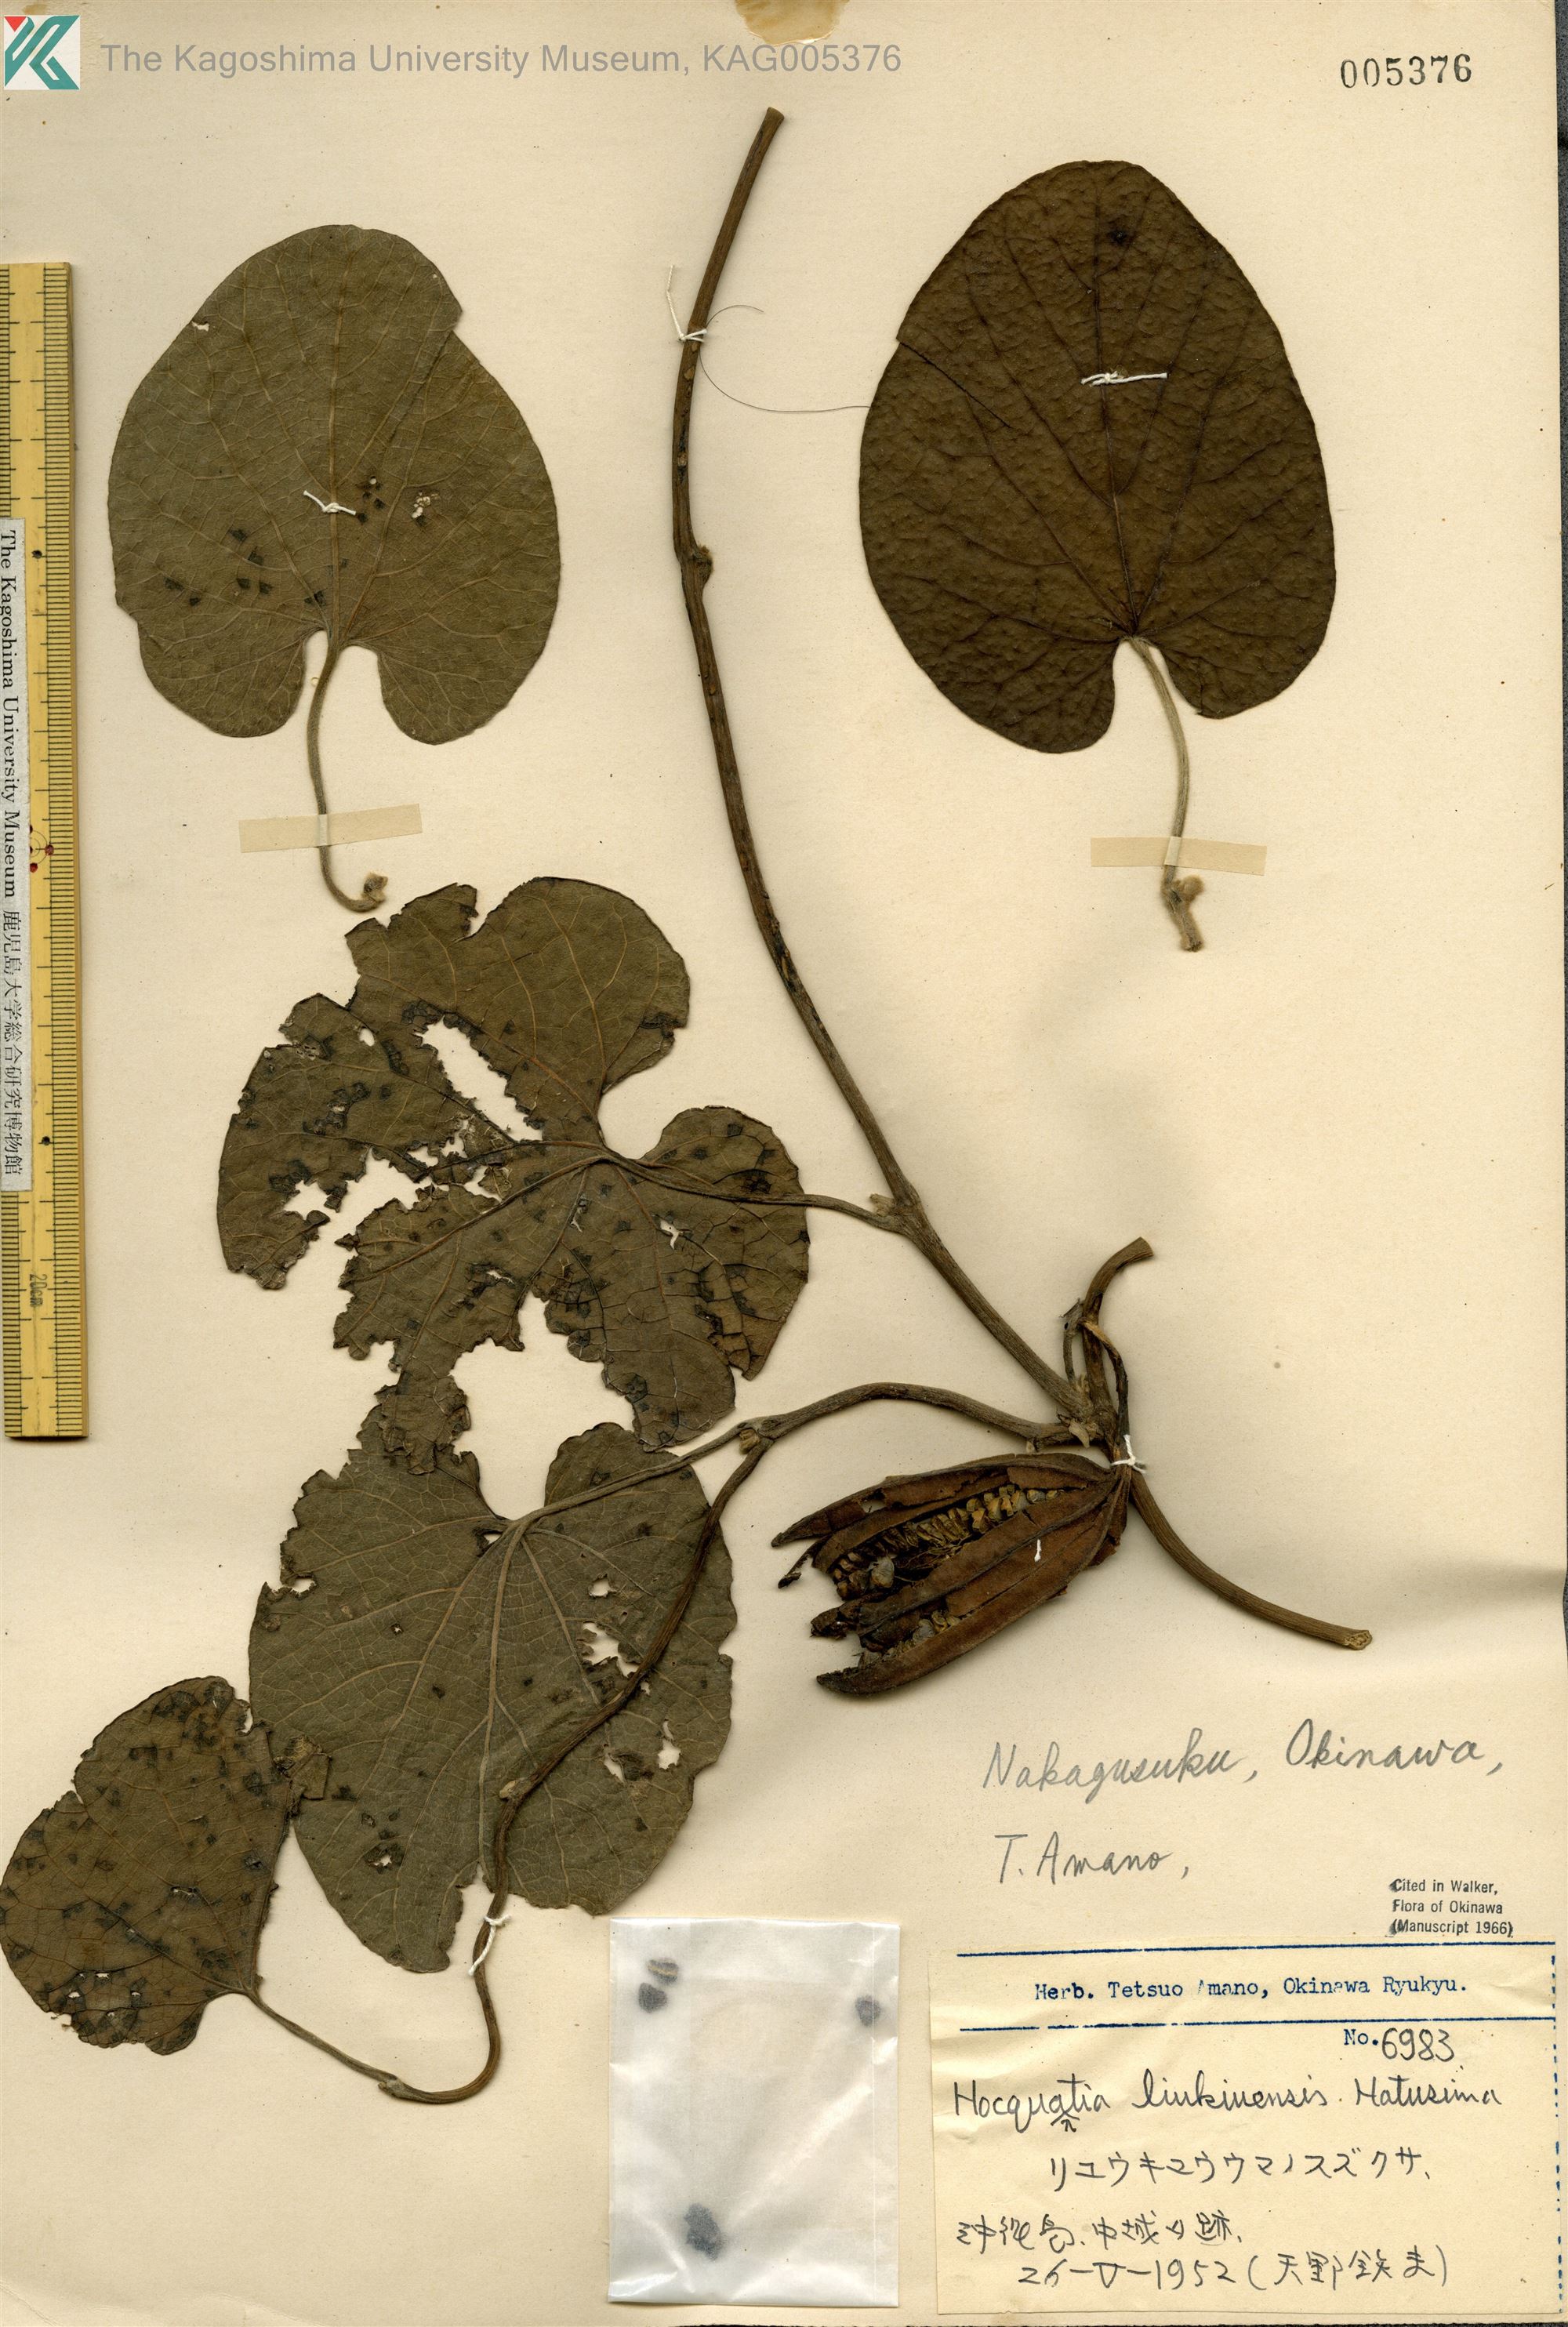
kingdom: Plantae
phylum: Tracheophyta
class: Magnoliopsida
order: Piperales
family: Aristolochiaceae
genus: Isotrema
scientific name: Isotrema liukiuense
